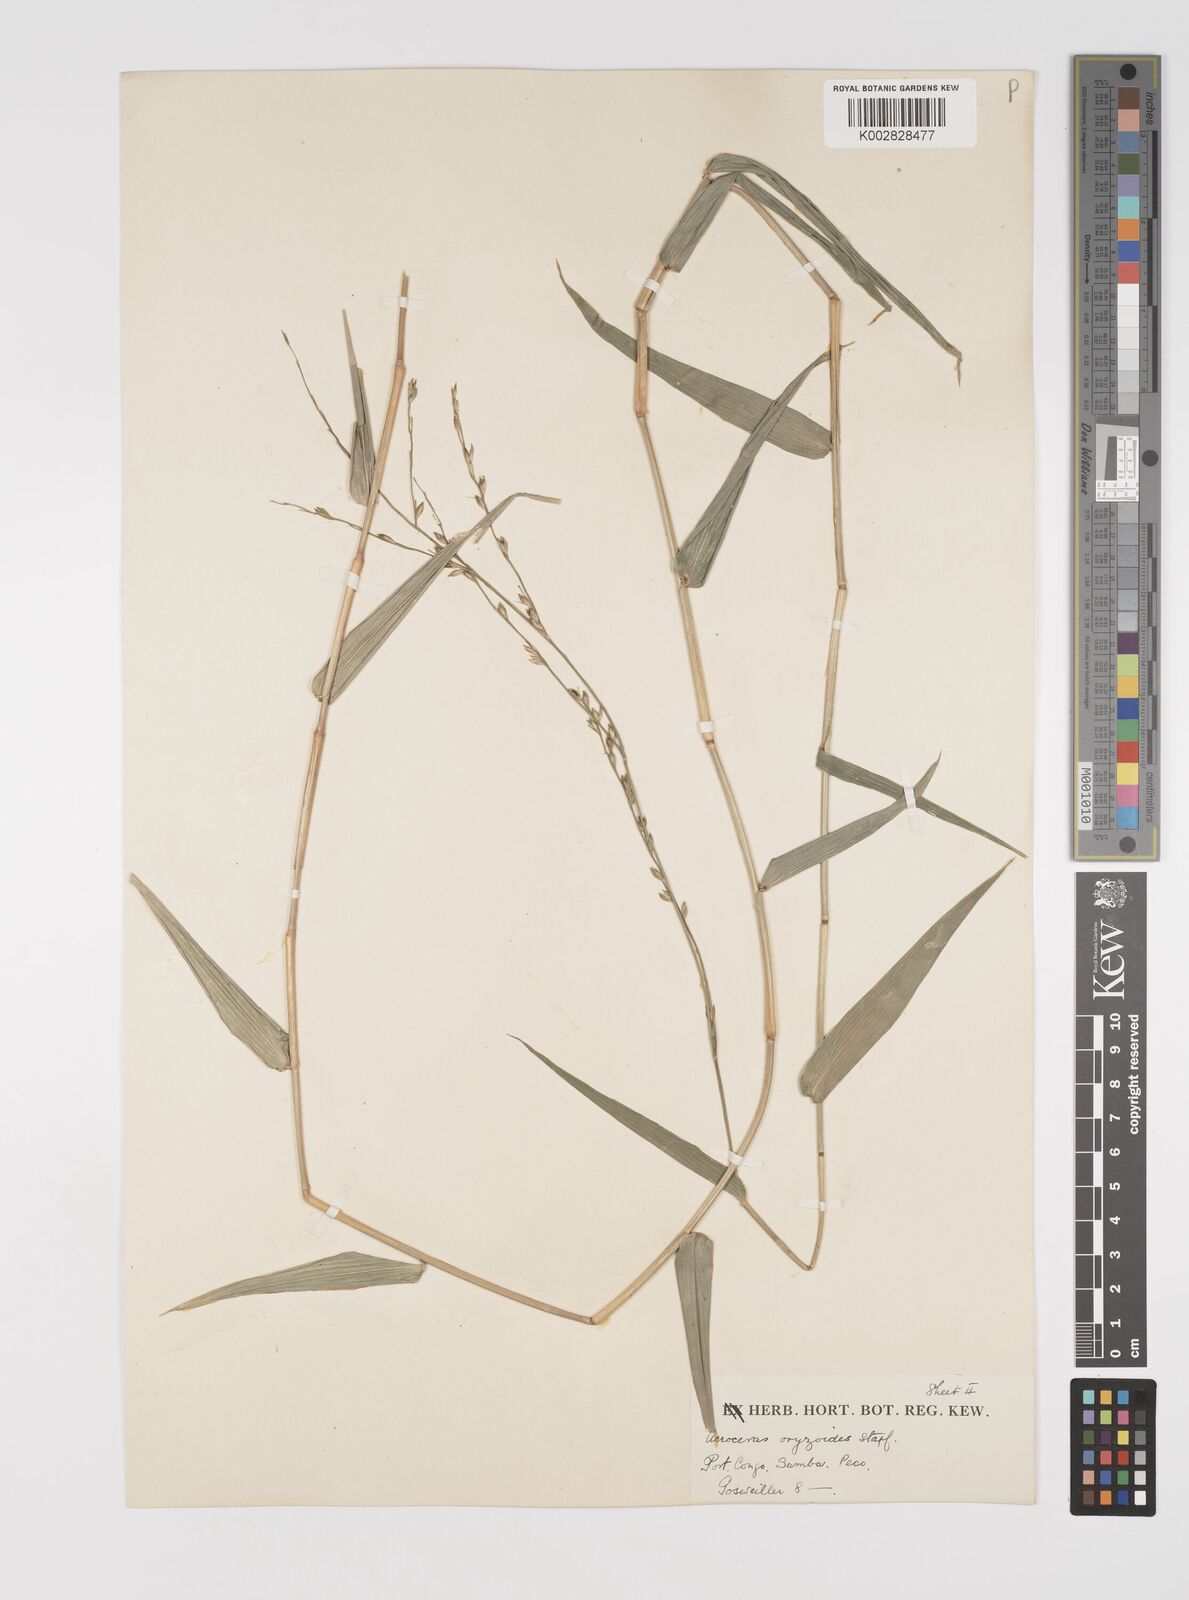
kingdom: Plantae
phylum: Tracheophyta
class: Liliopsida
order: Poales
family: Poaceae
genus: Acroceras
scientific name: Acroceras zizanioides
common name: Oat grass
